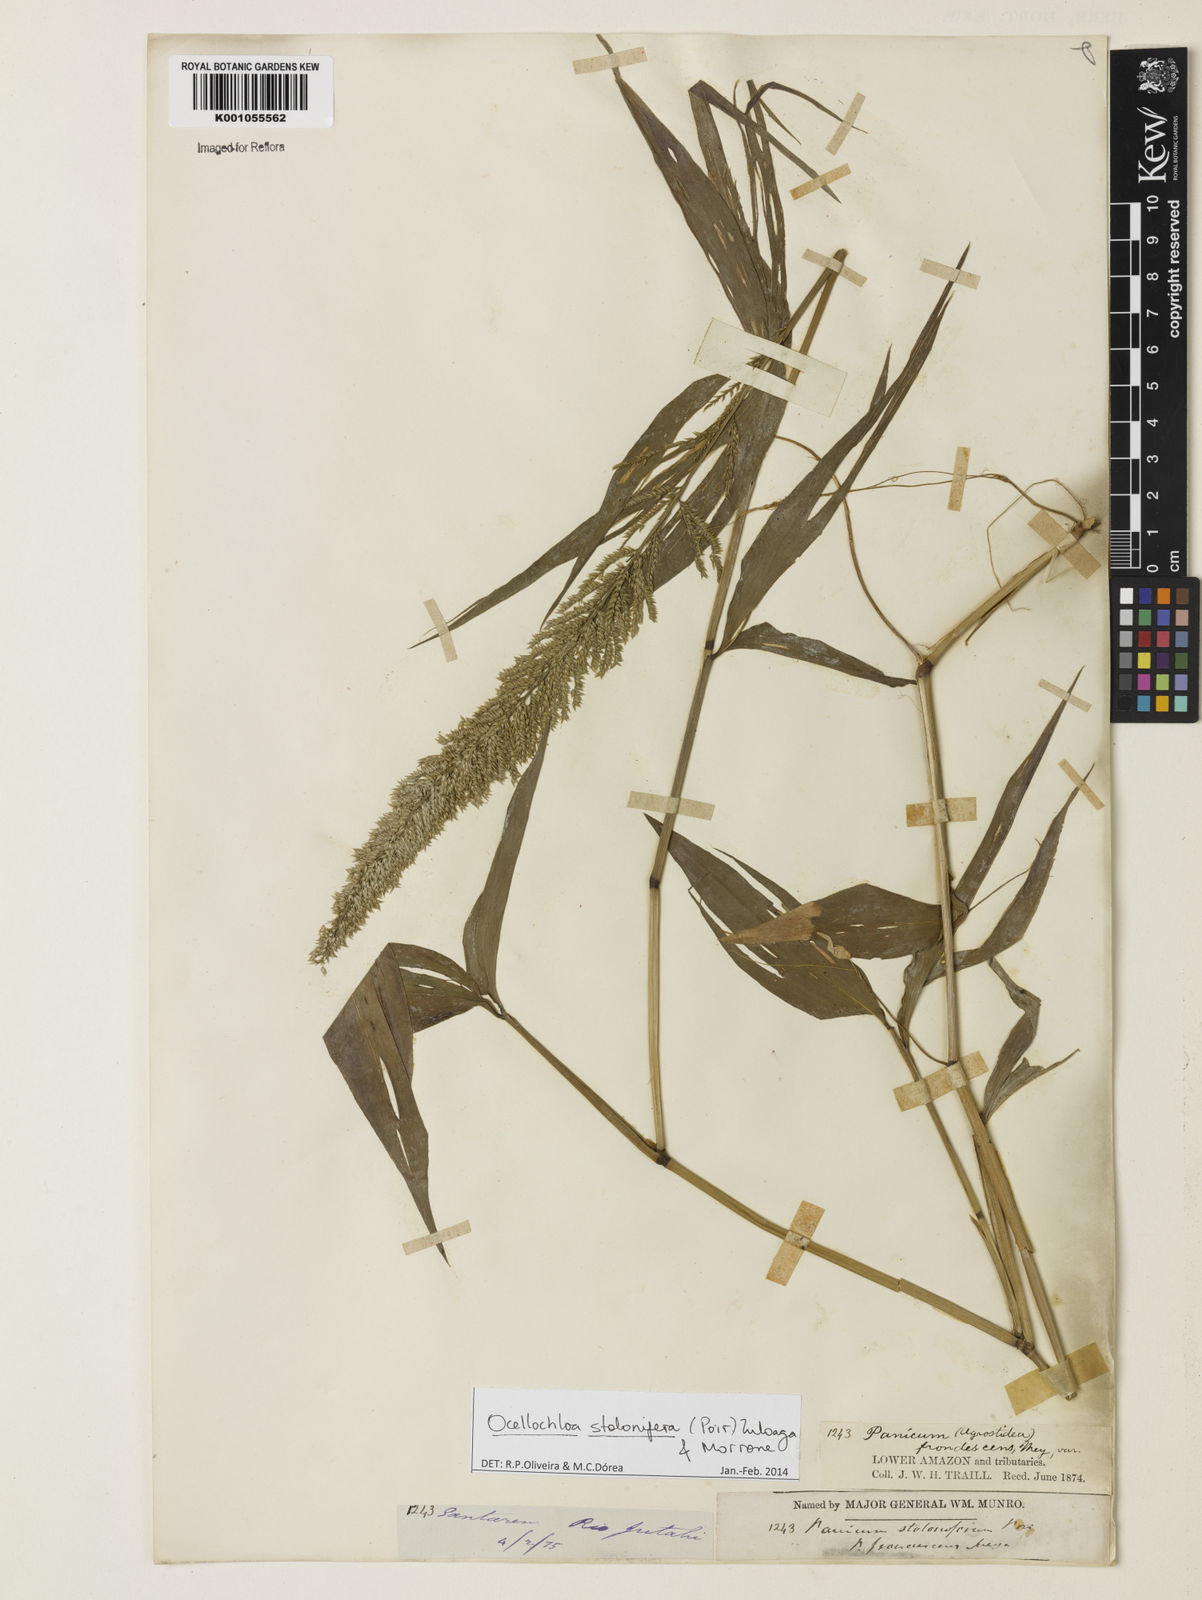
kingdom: Plantae
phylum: Tracheophyta
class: Liliopsida
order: Poales
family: Poaceae
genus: Ocellochloa
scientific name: Ocellochloa stolonifera
